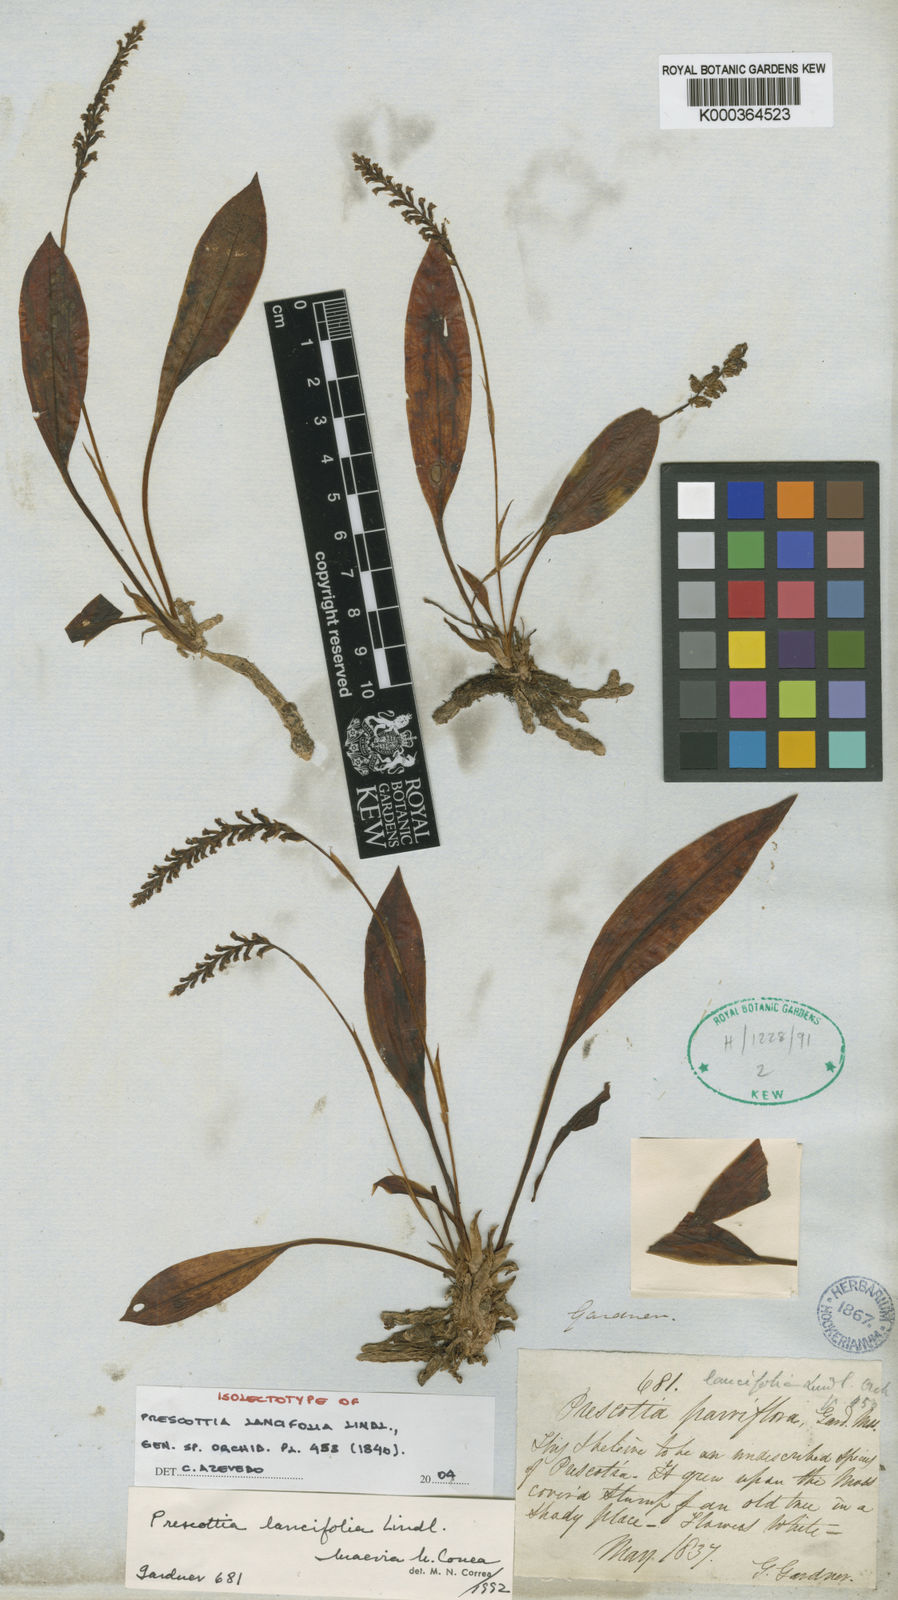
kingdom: Plantae
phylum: Tracheophyta
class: Liliopsida
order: Asparagales
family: Orchidaceae
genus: Prescottia
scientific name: Prescottia lancifolia
